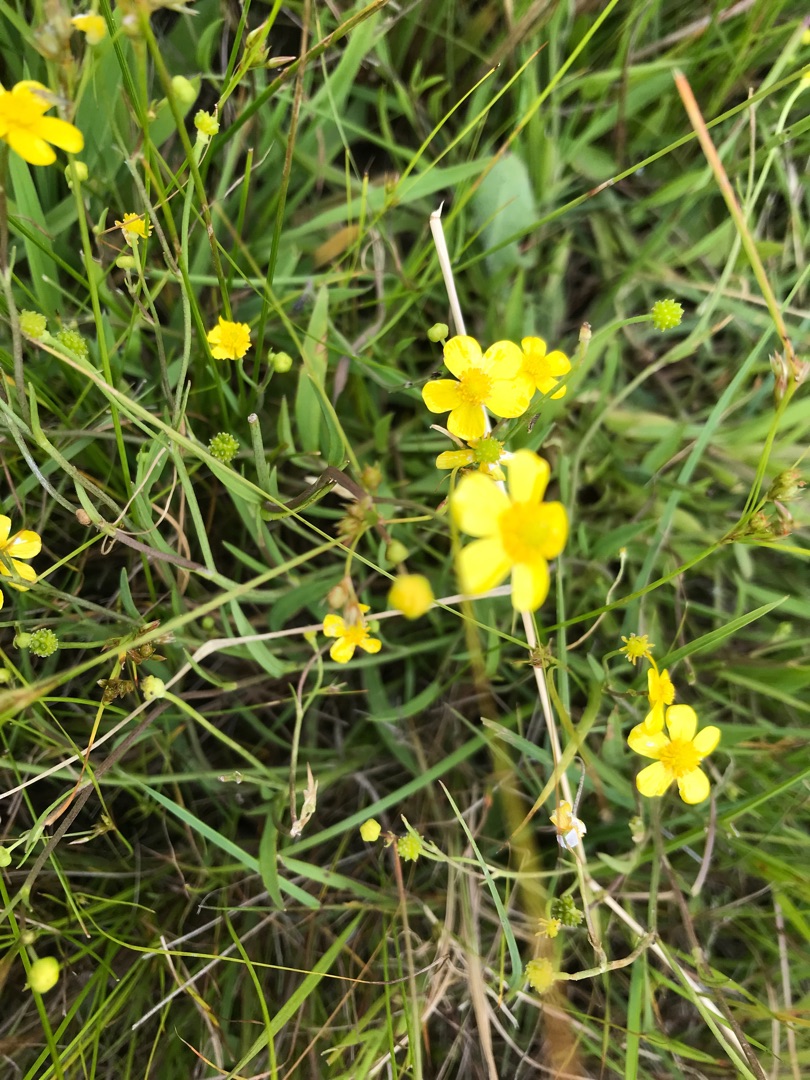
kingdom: Plantae
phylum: Tracheophyta
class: Magnoliopsida
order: Ranunculales
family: Ranunculaceae
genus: Ranunculus
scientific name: Ranunculus flammula
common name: Kær-ranunkel
